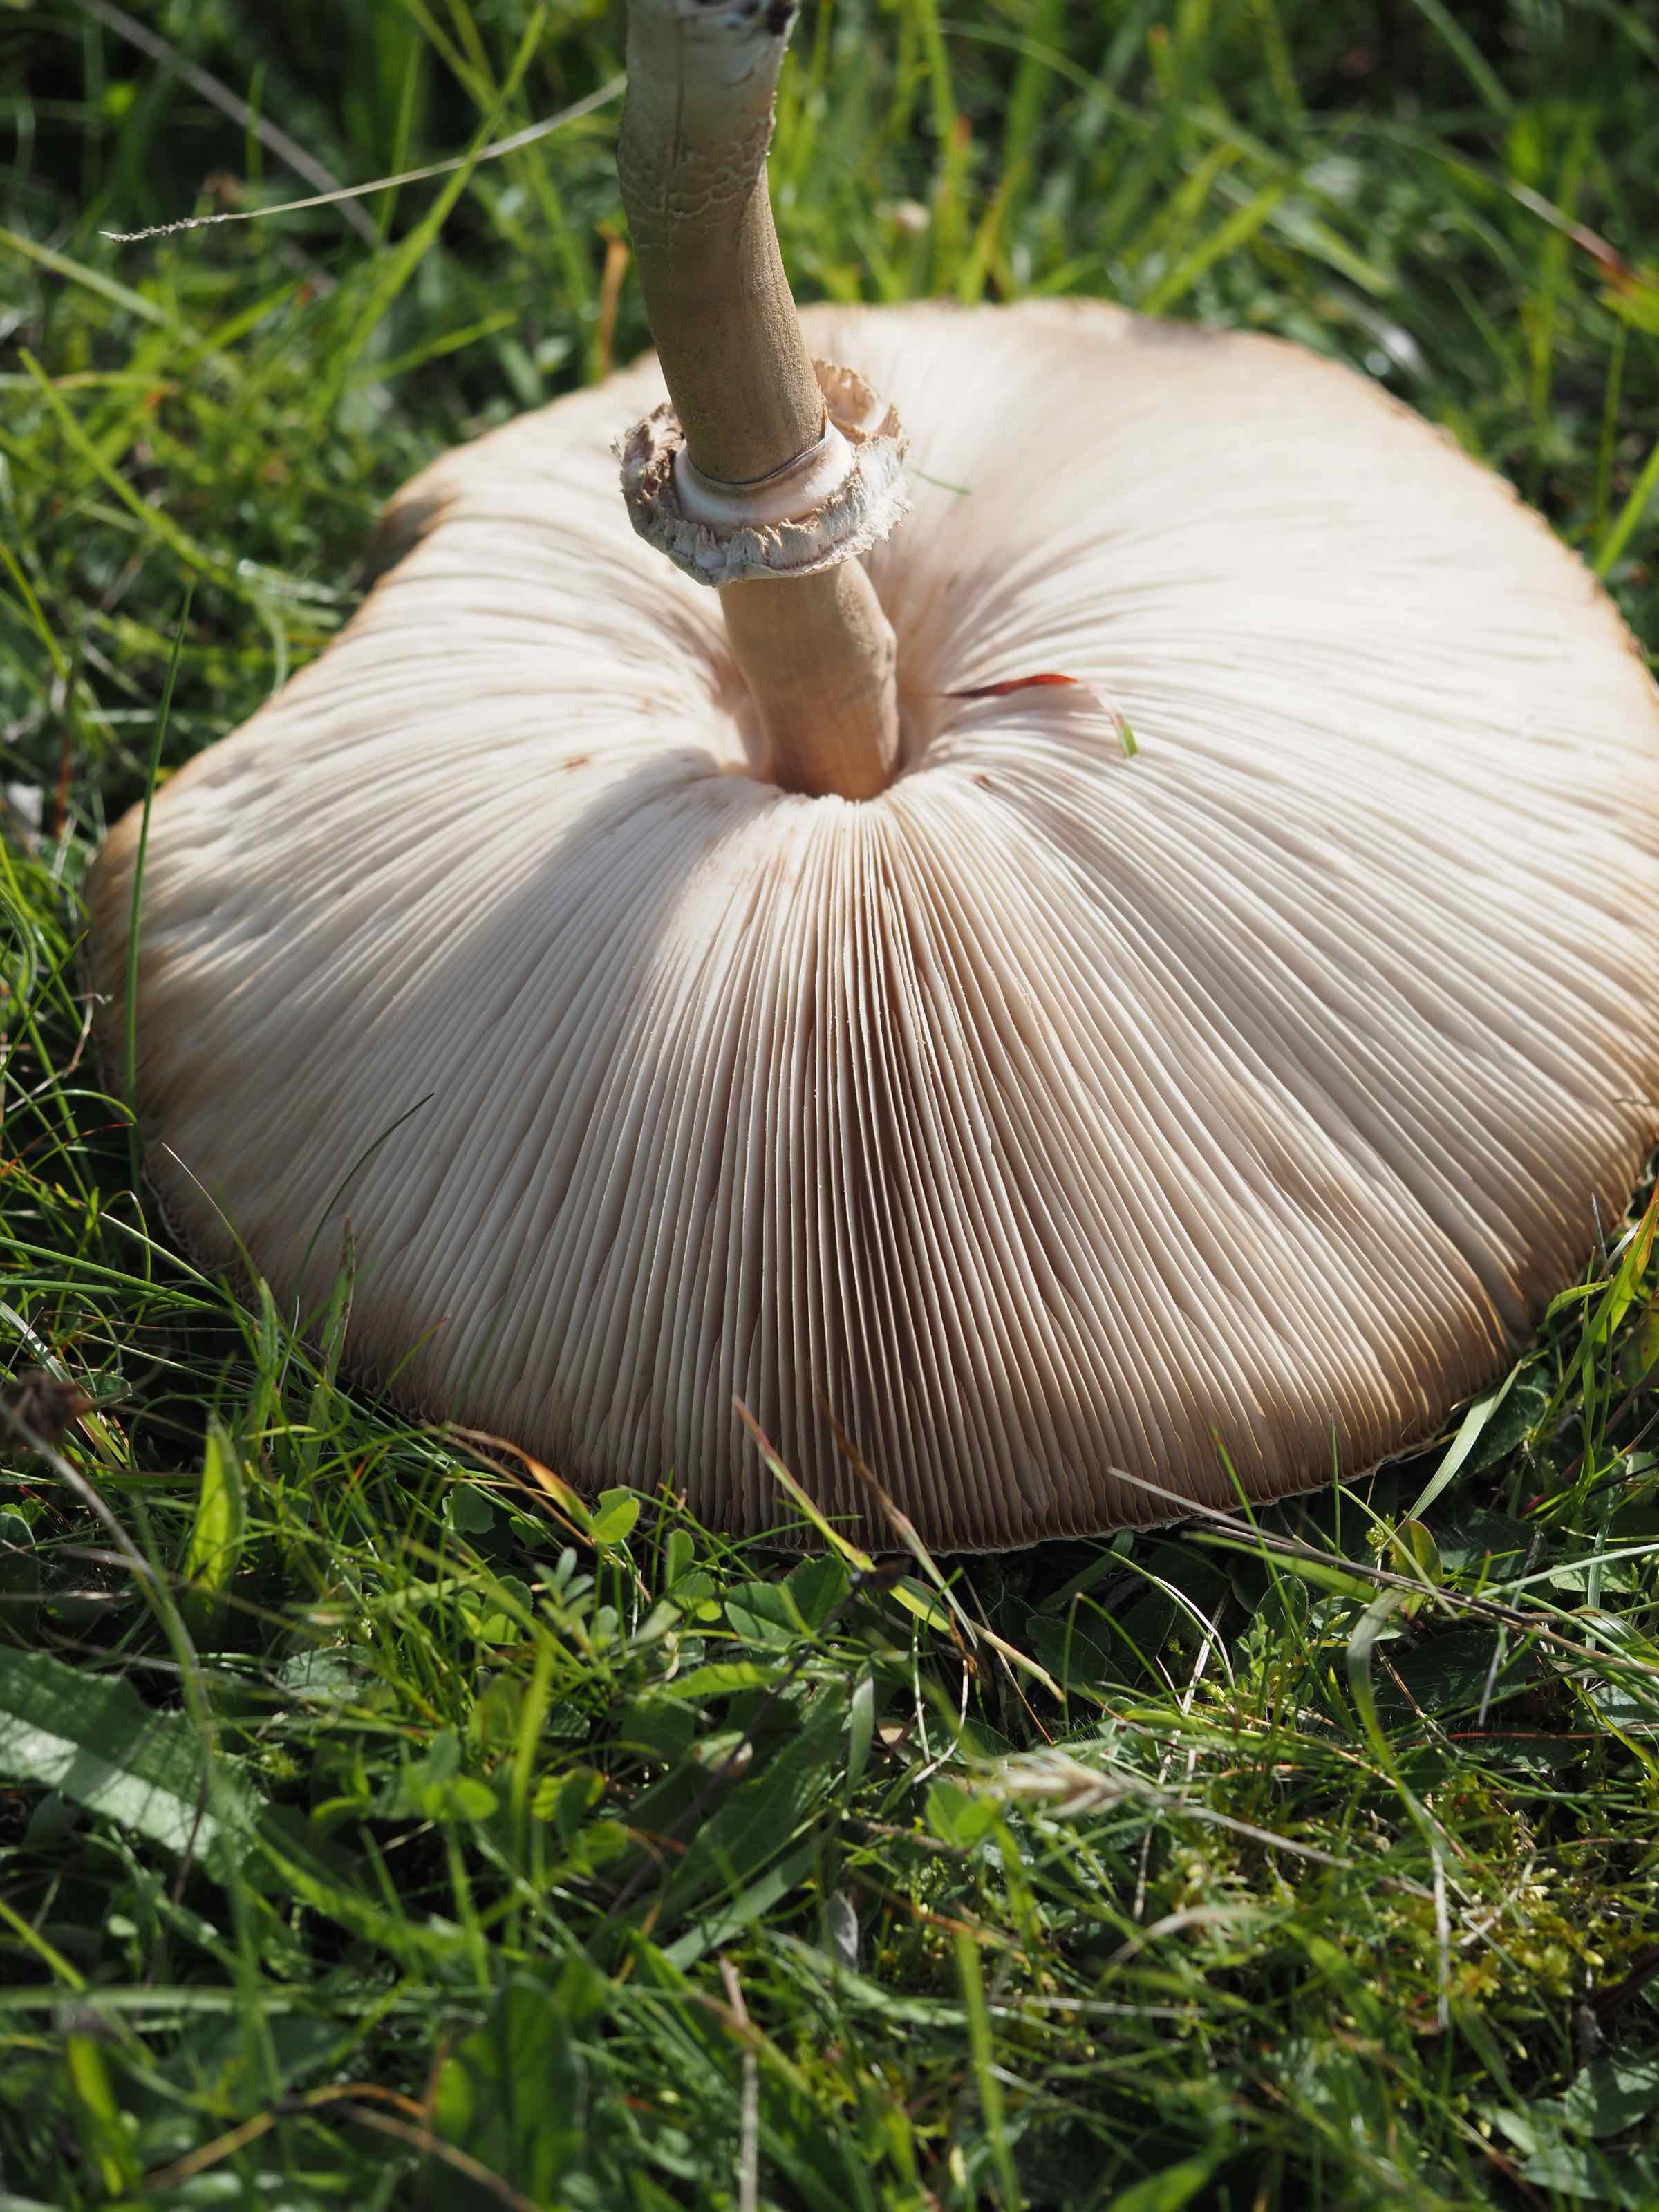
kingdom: Fungi
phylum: Basidiomycota
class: Agaricomycetes
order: Agaricales
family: Agaricaceae
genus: Macrolepiota
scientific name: Macrolepiota
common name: kæmpeparasolhat
